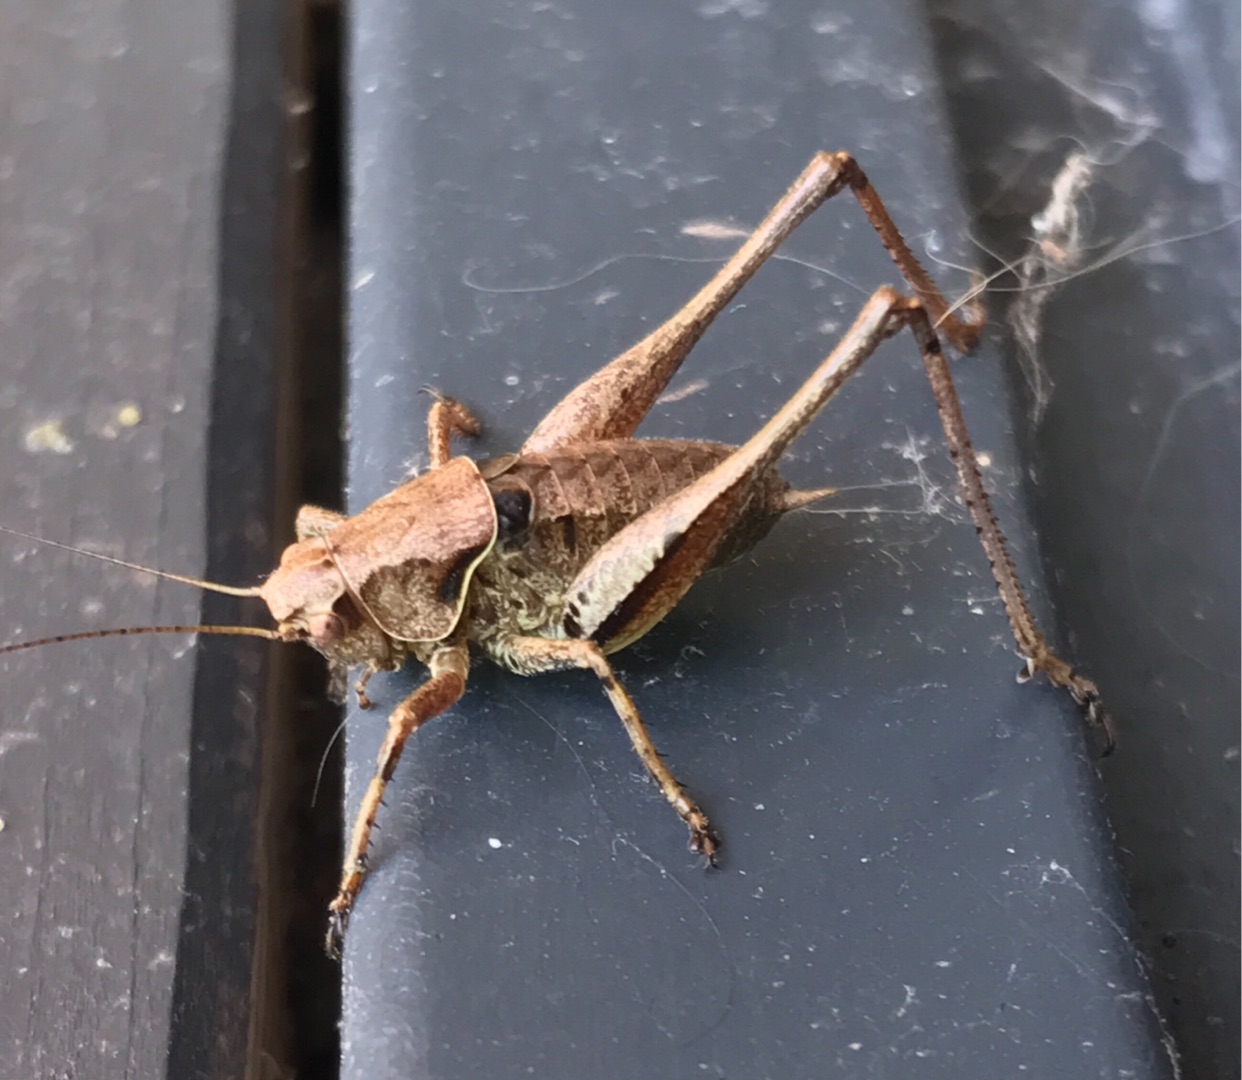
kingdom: Animalia
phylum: Arthropoda
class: Insecta
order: Orthoptera
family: Tettigoniidae
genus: Pholidoptera
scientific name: Pholidoptera griseoaptera
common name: Buskgræshoppe
